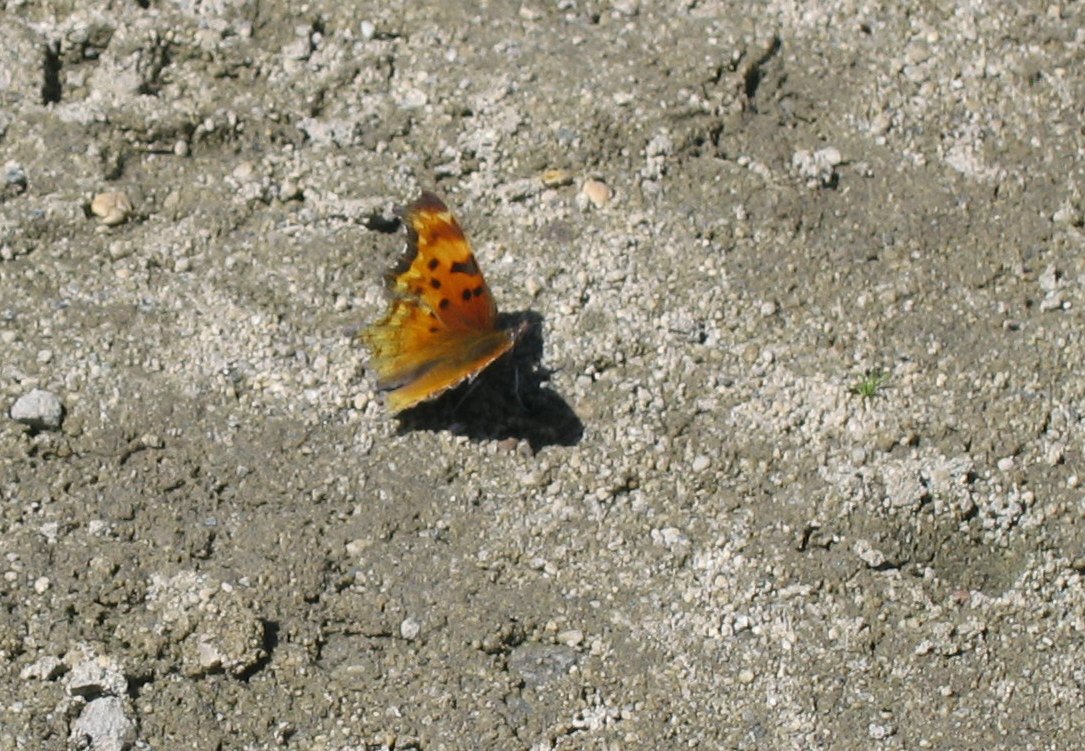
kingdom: Animalia
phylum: Arthropoda
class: Insecta
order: Lepidoptera
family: Nymphalidae
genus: Polygonia
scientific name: Polygonia gracilis
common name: Hoary Comma
